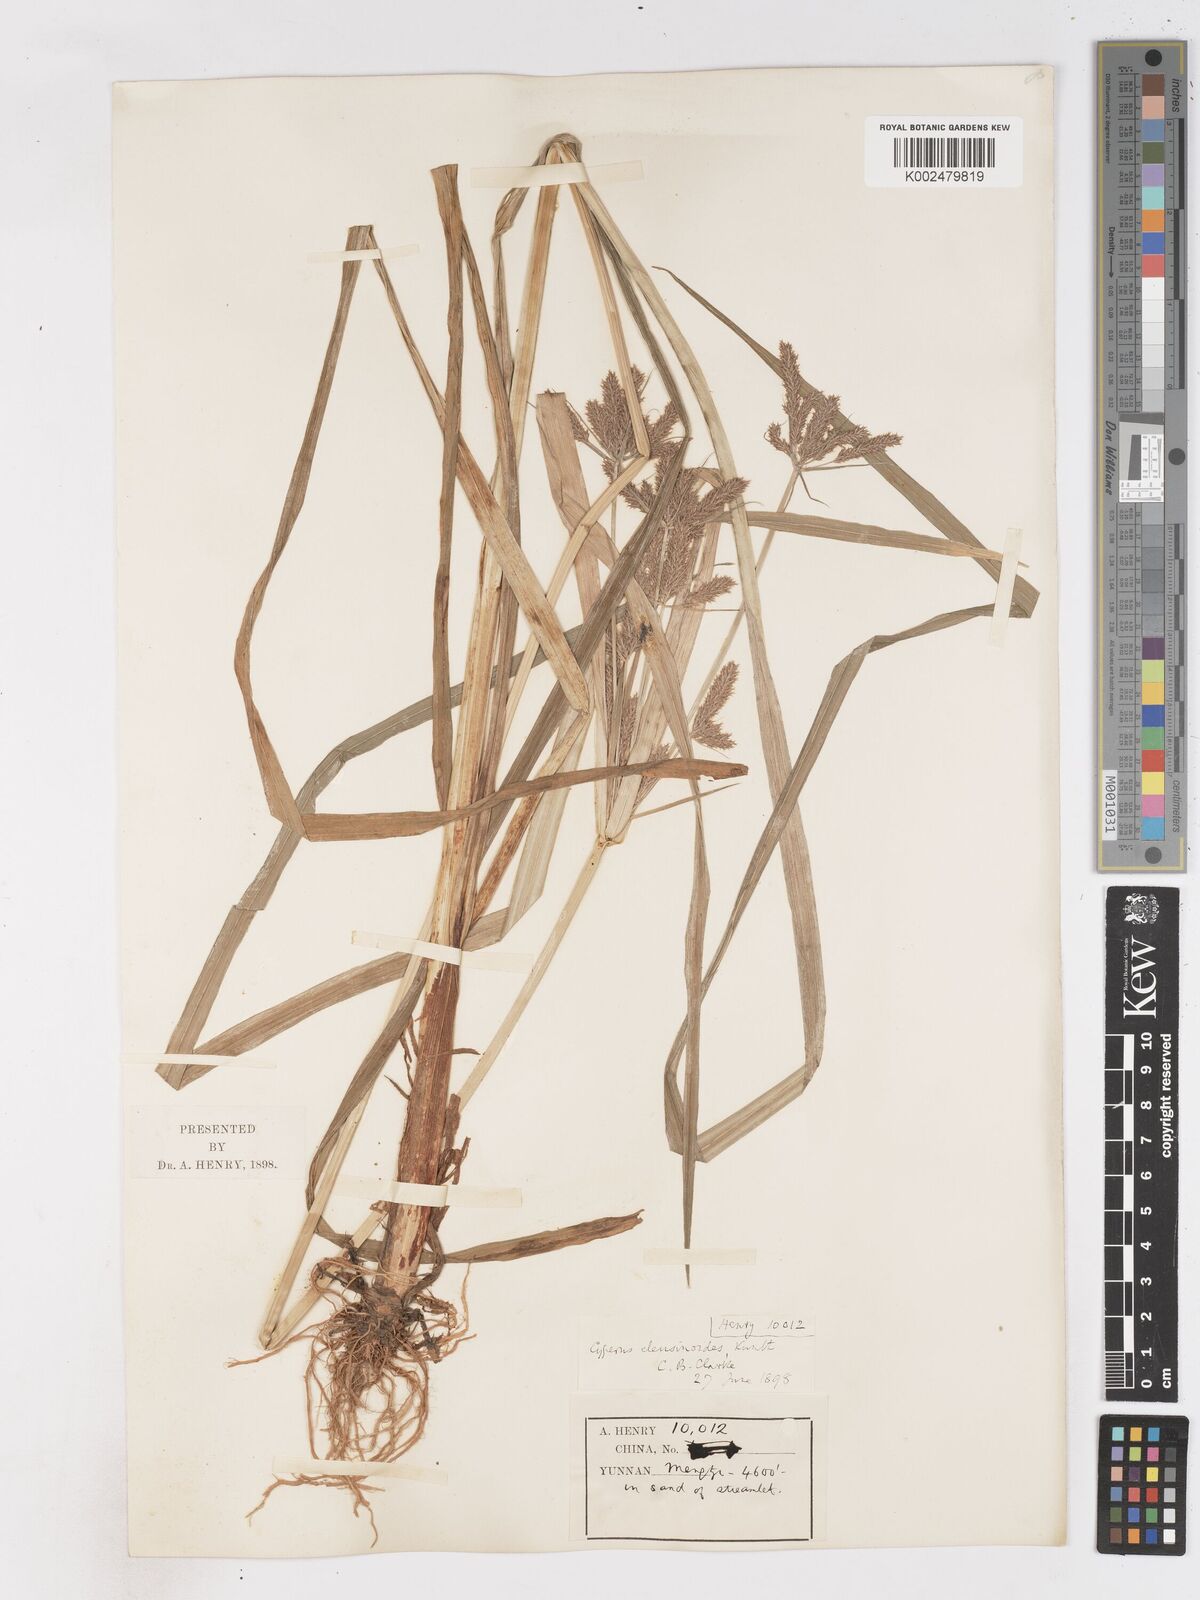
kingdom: Plantae
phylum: Tracheophyta
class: Liliopsida
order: Poales
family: Cyperaceae
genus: Cyperus
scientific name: Cyperus nutans
